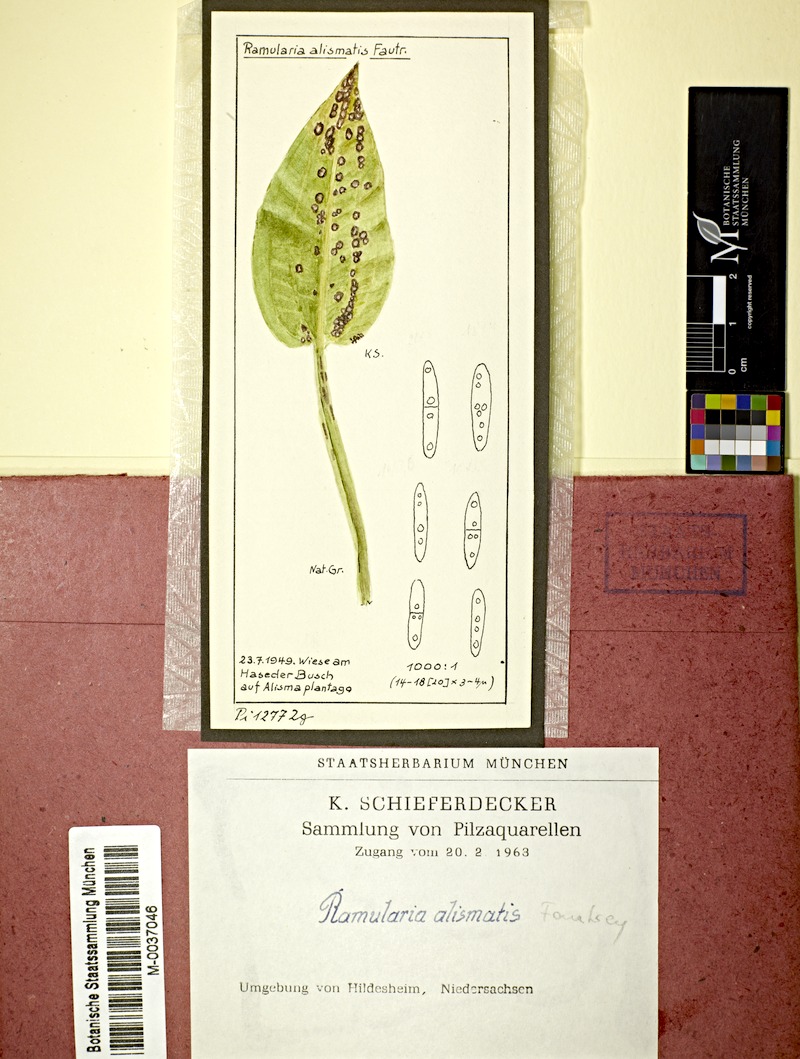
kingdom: Plantae
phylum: Tracheophyta
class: Liliopsida
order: Alismatales
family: Alismataceae
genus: Alisma
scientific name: Alisma plantago-aquatica
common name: Water-plantain
